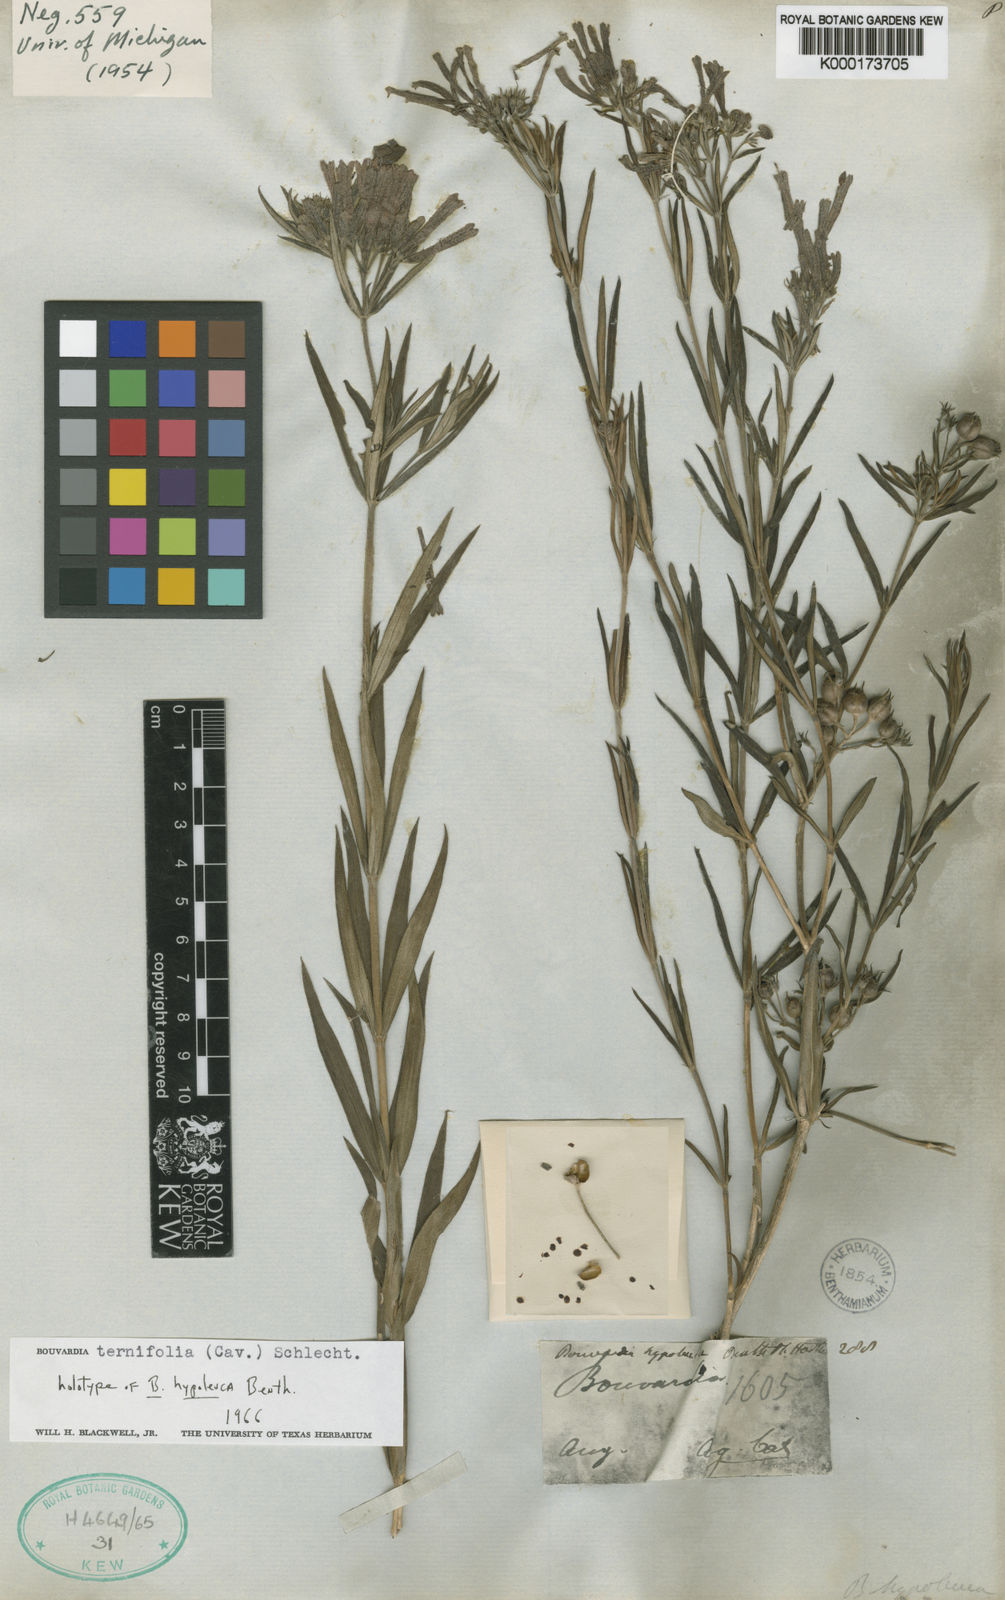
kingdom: Plantae
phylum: Tracheophyta
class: Magnoliopsida
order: Gentianales
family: Rubiaceae
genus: Bouvardia
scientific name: Bouvardia ternifolia
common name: Scarlet bouvardia
